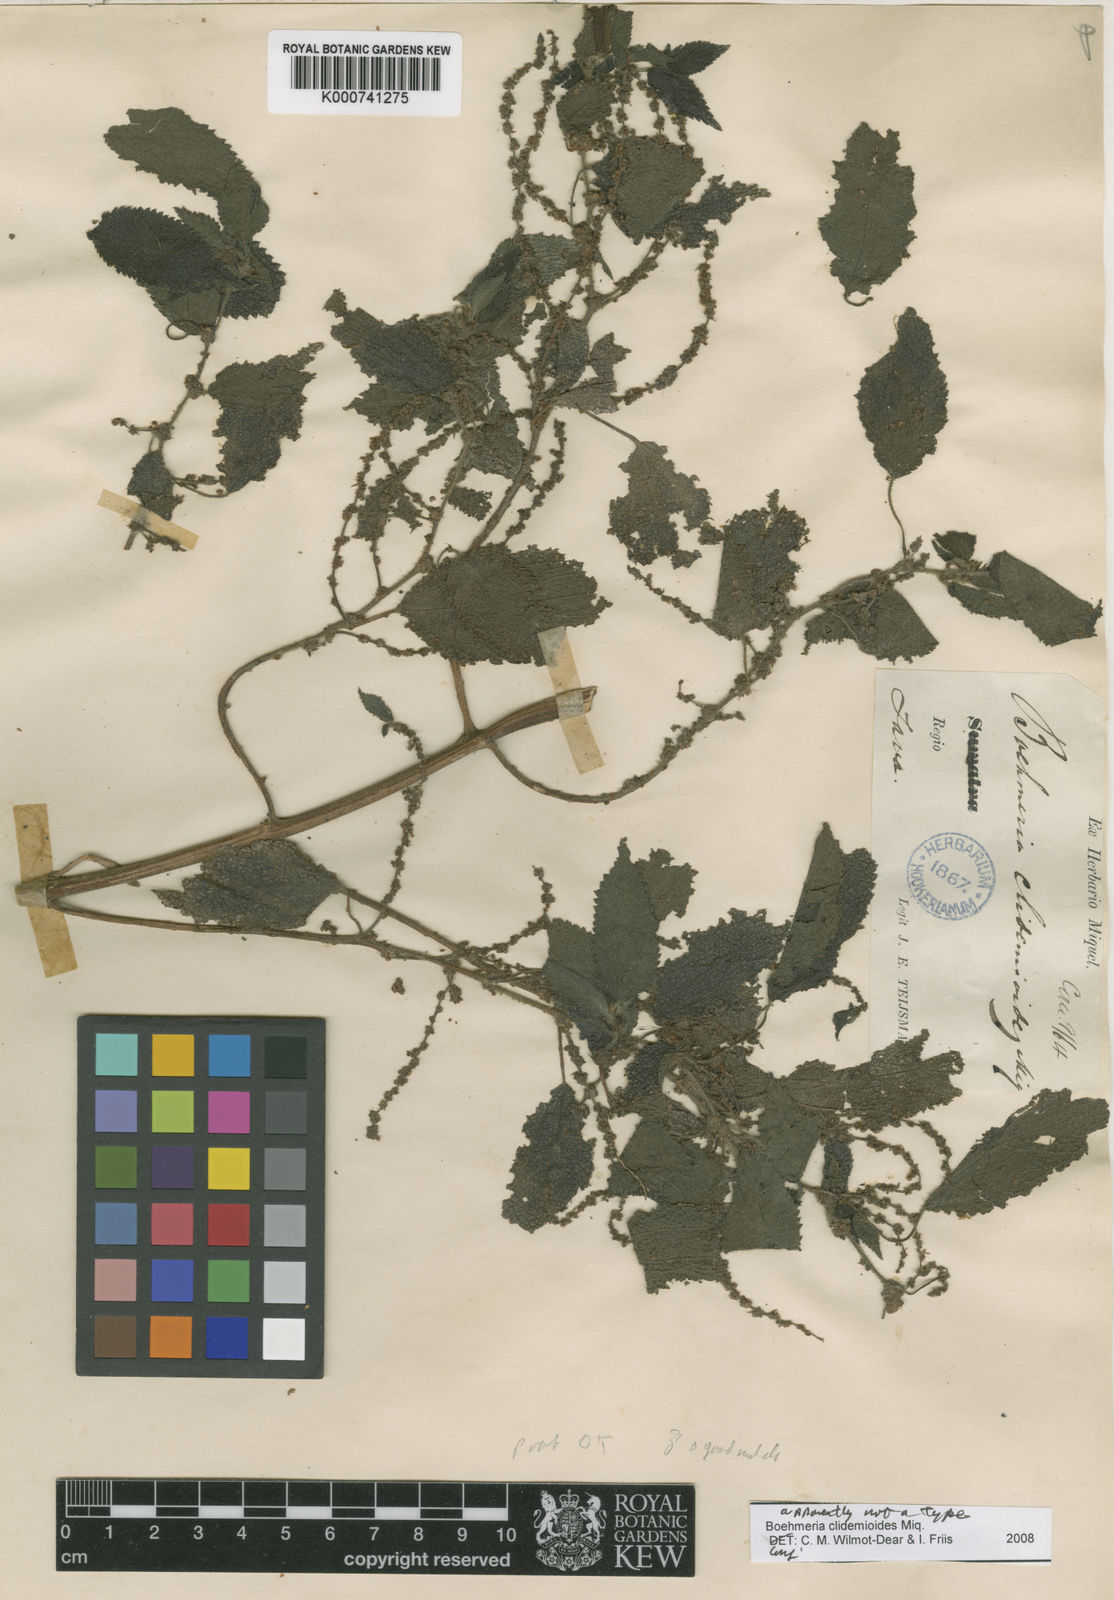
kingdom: Plantae
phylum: Tracheophyta
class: Magnoliopsida
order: Rosales
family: Urticaceae
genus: Boehmeria
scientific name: Boehmeria clidemioides
